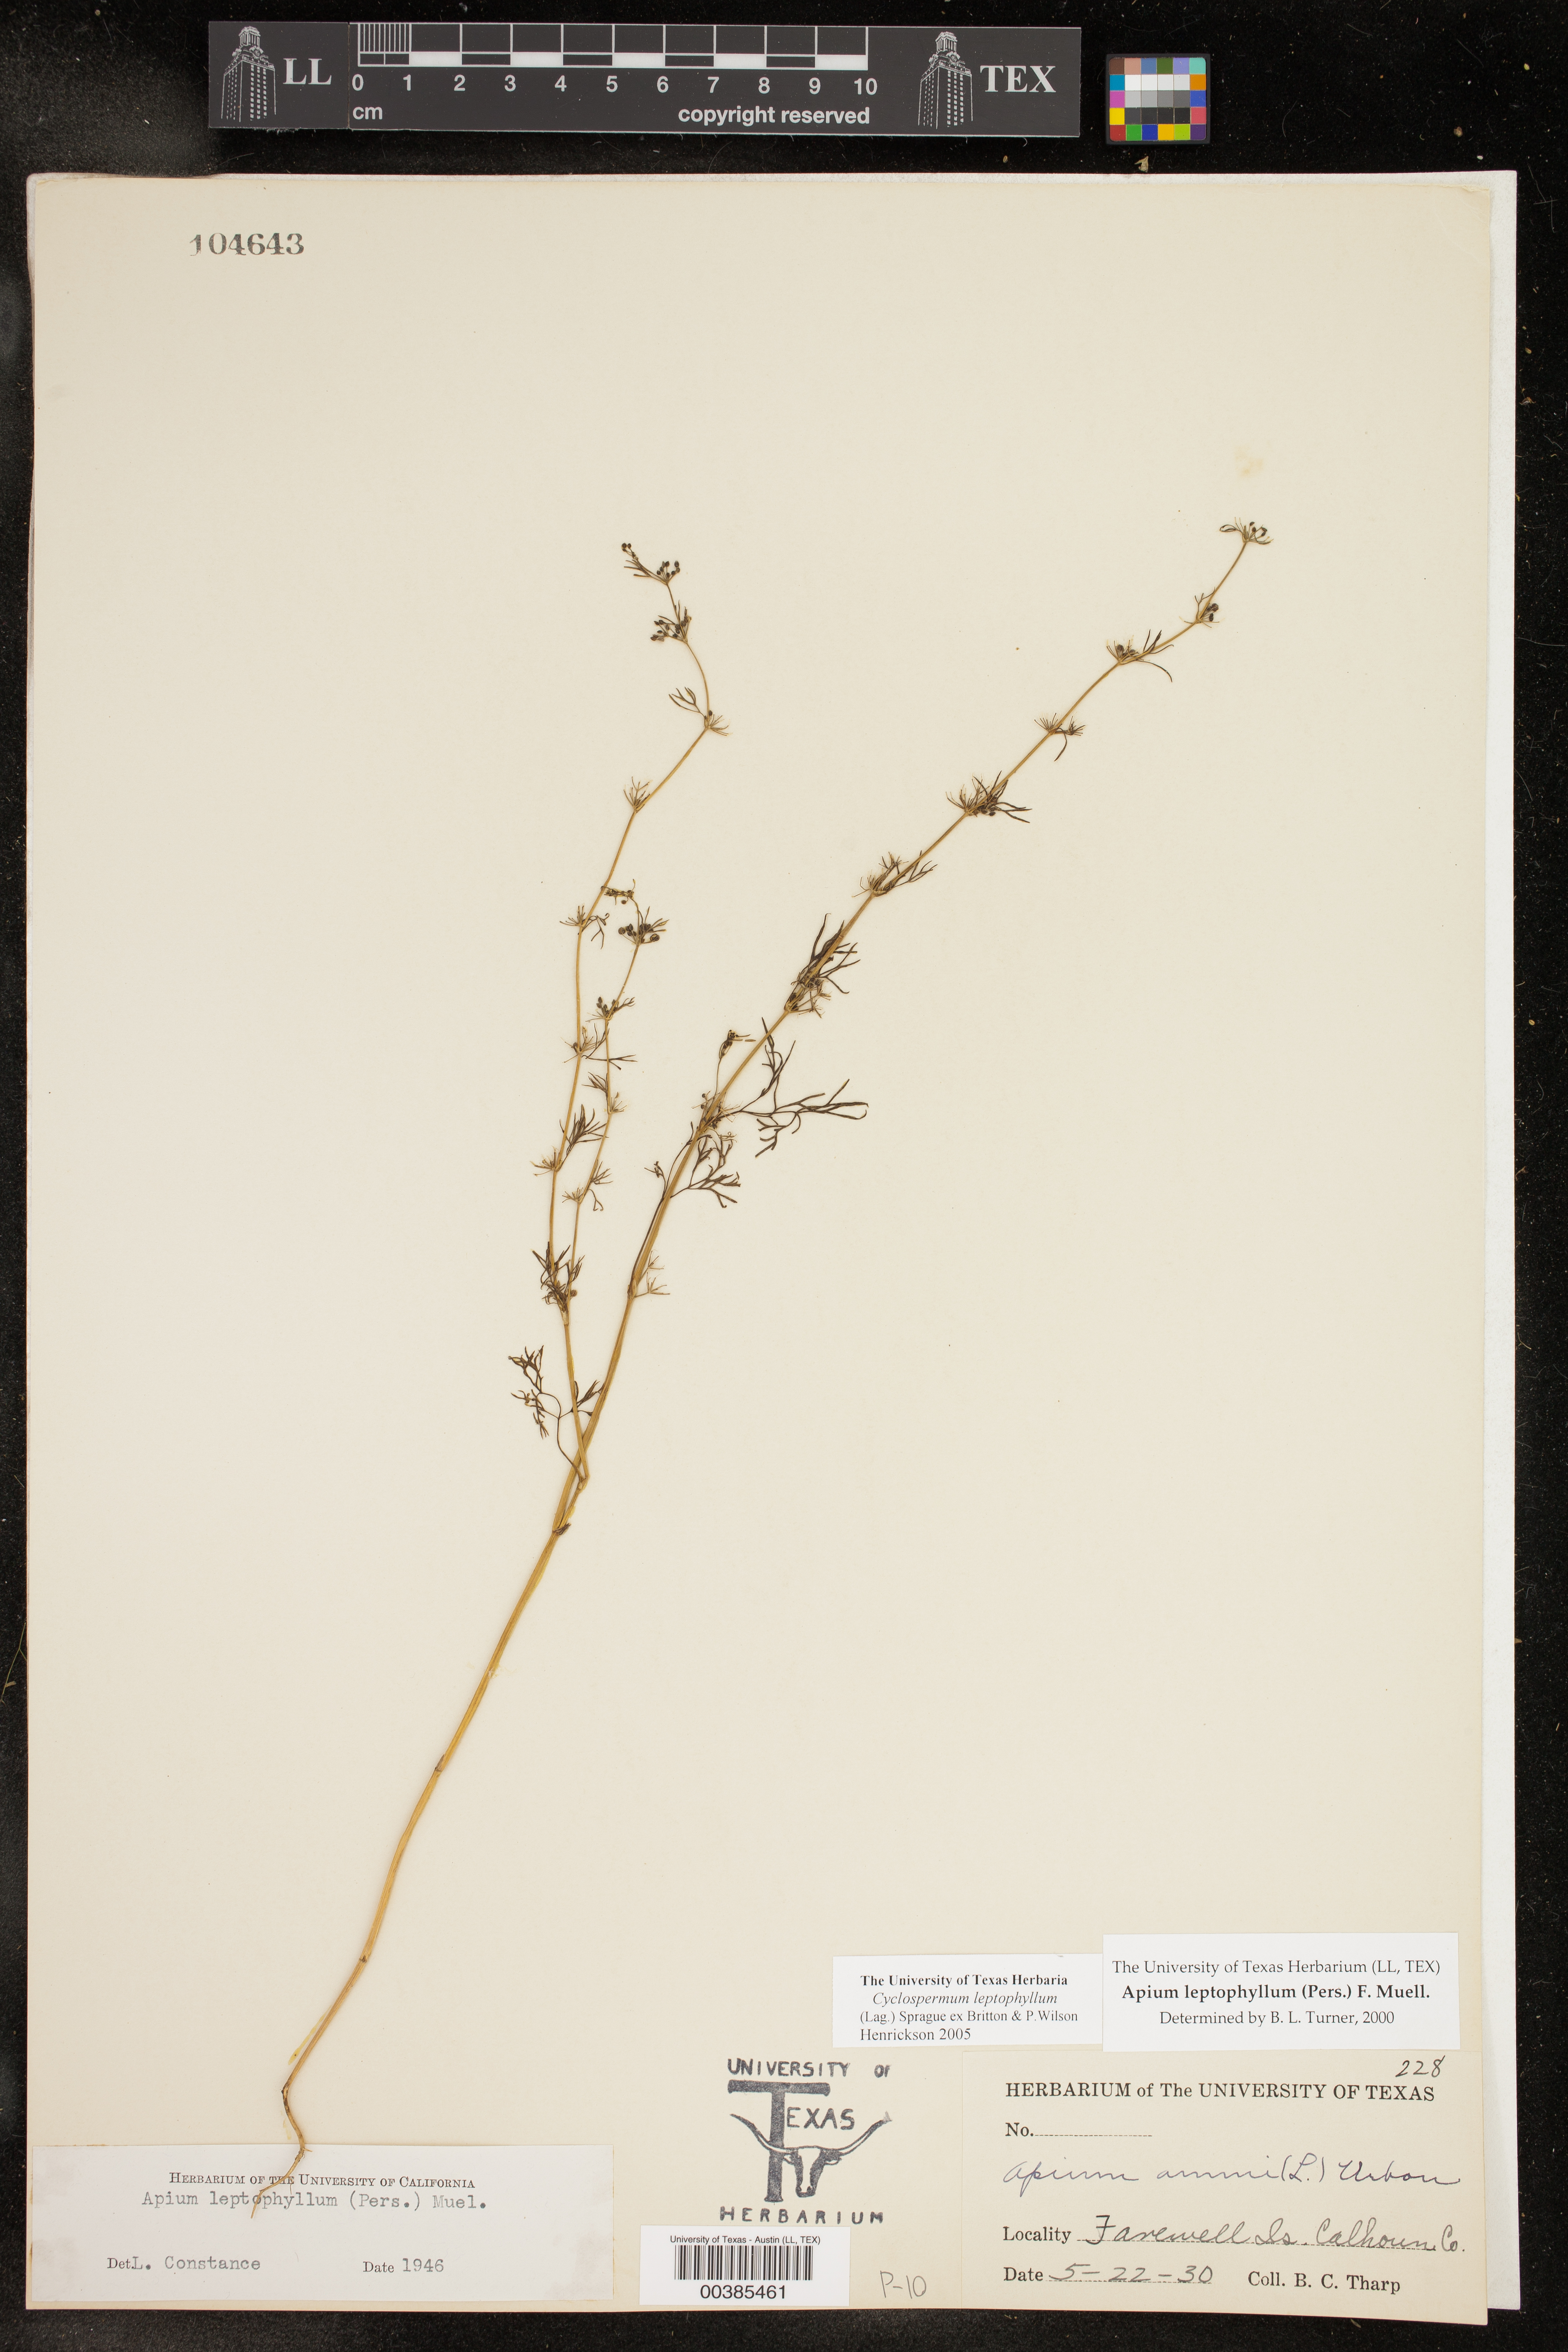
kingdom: Plantae
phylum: Tracheophyta
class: Magnoliopsida
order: Apiales
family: Apiaceae
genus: Cyclospermum
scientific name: Cyclospermum leptophyllum
